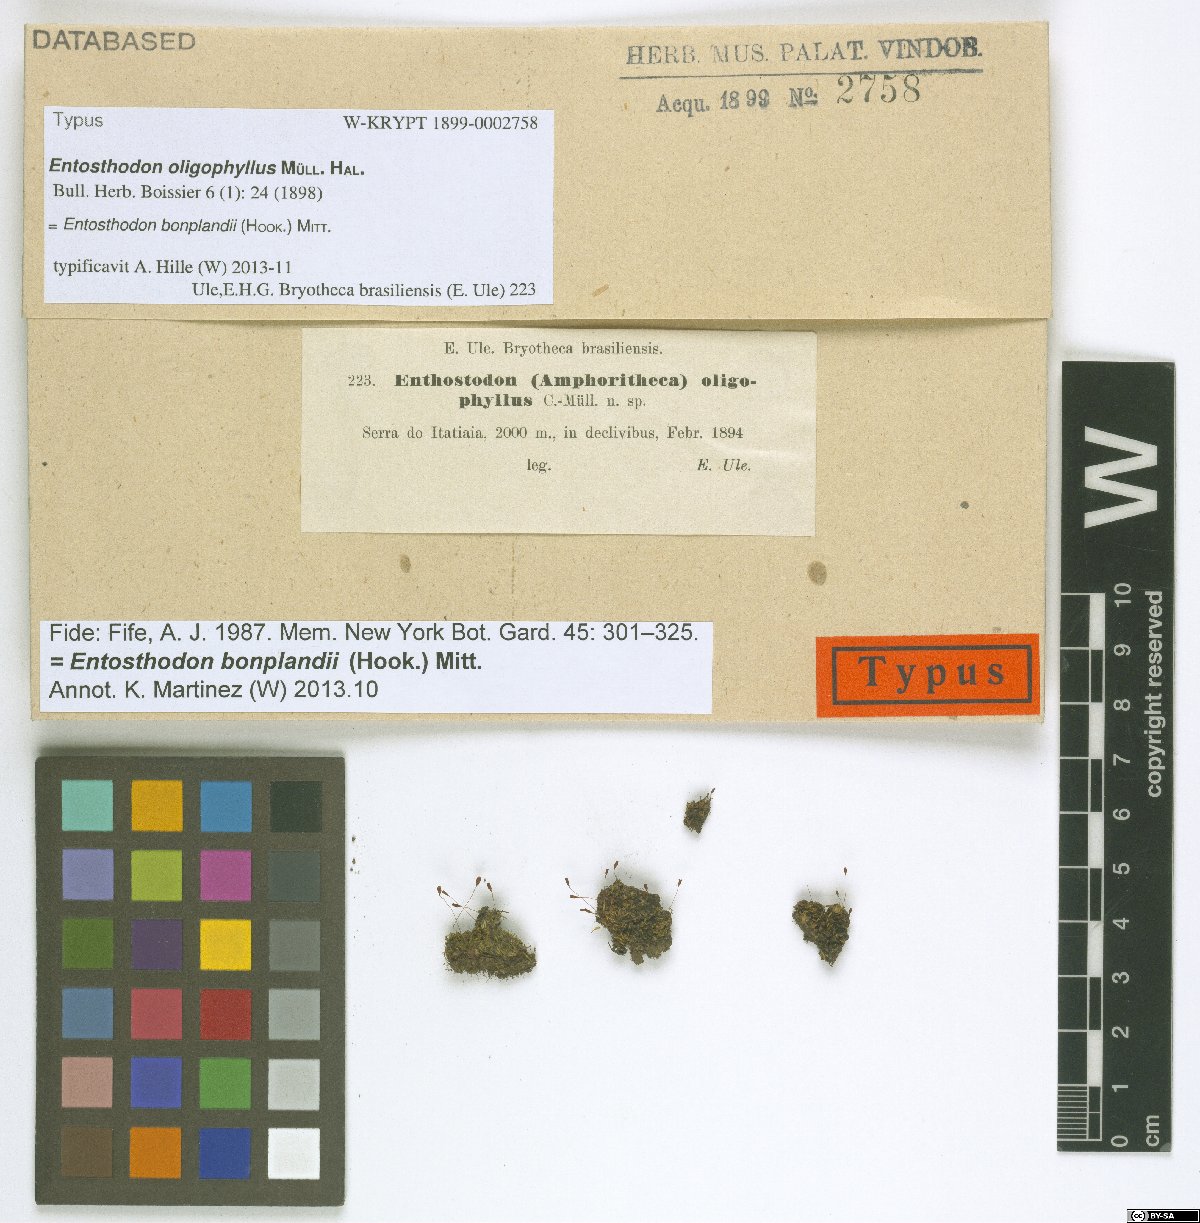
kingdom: Plantae
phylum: Bryophyta
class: Bryopsida
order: Funariales
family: Funariaceae
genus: Entosthodon
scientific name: Entosthodon bonplandii
